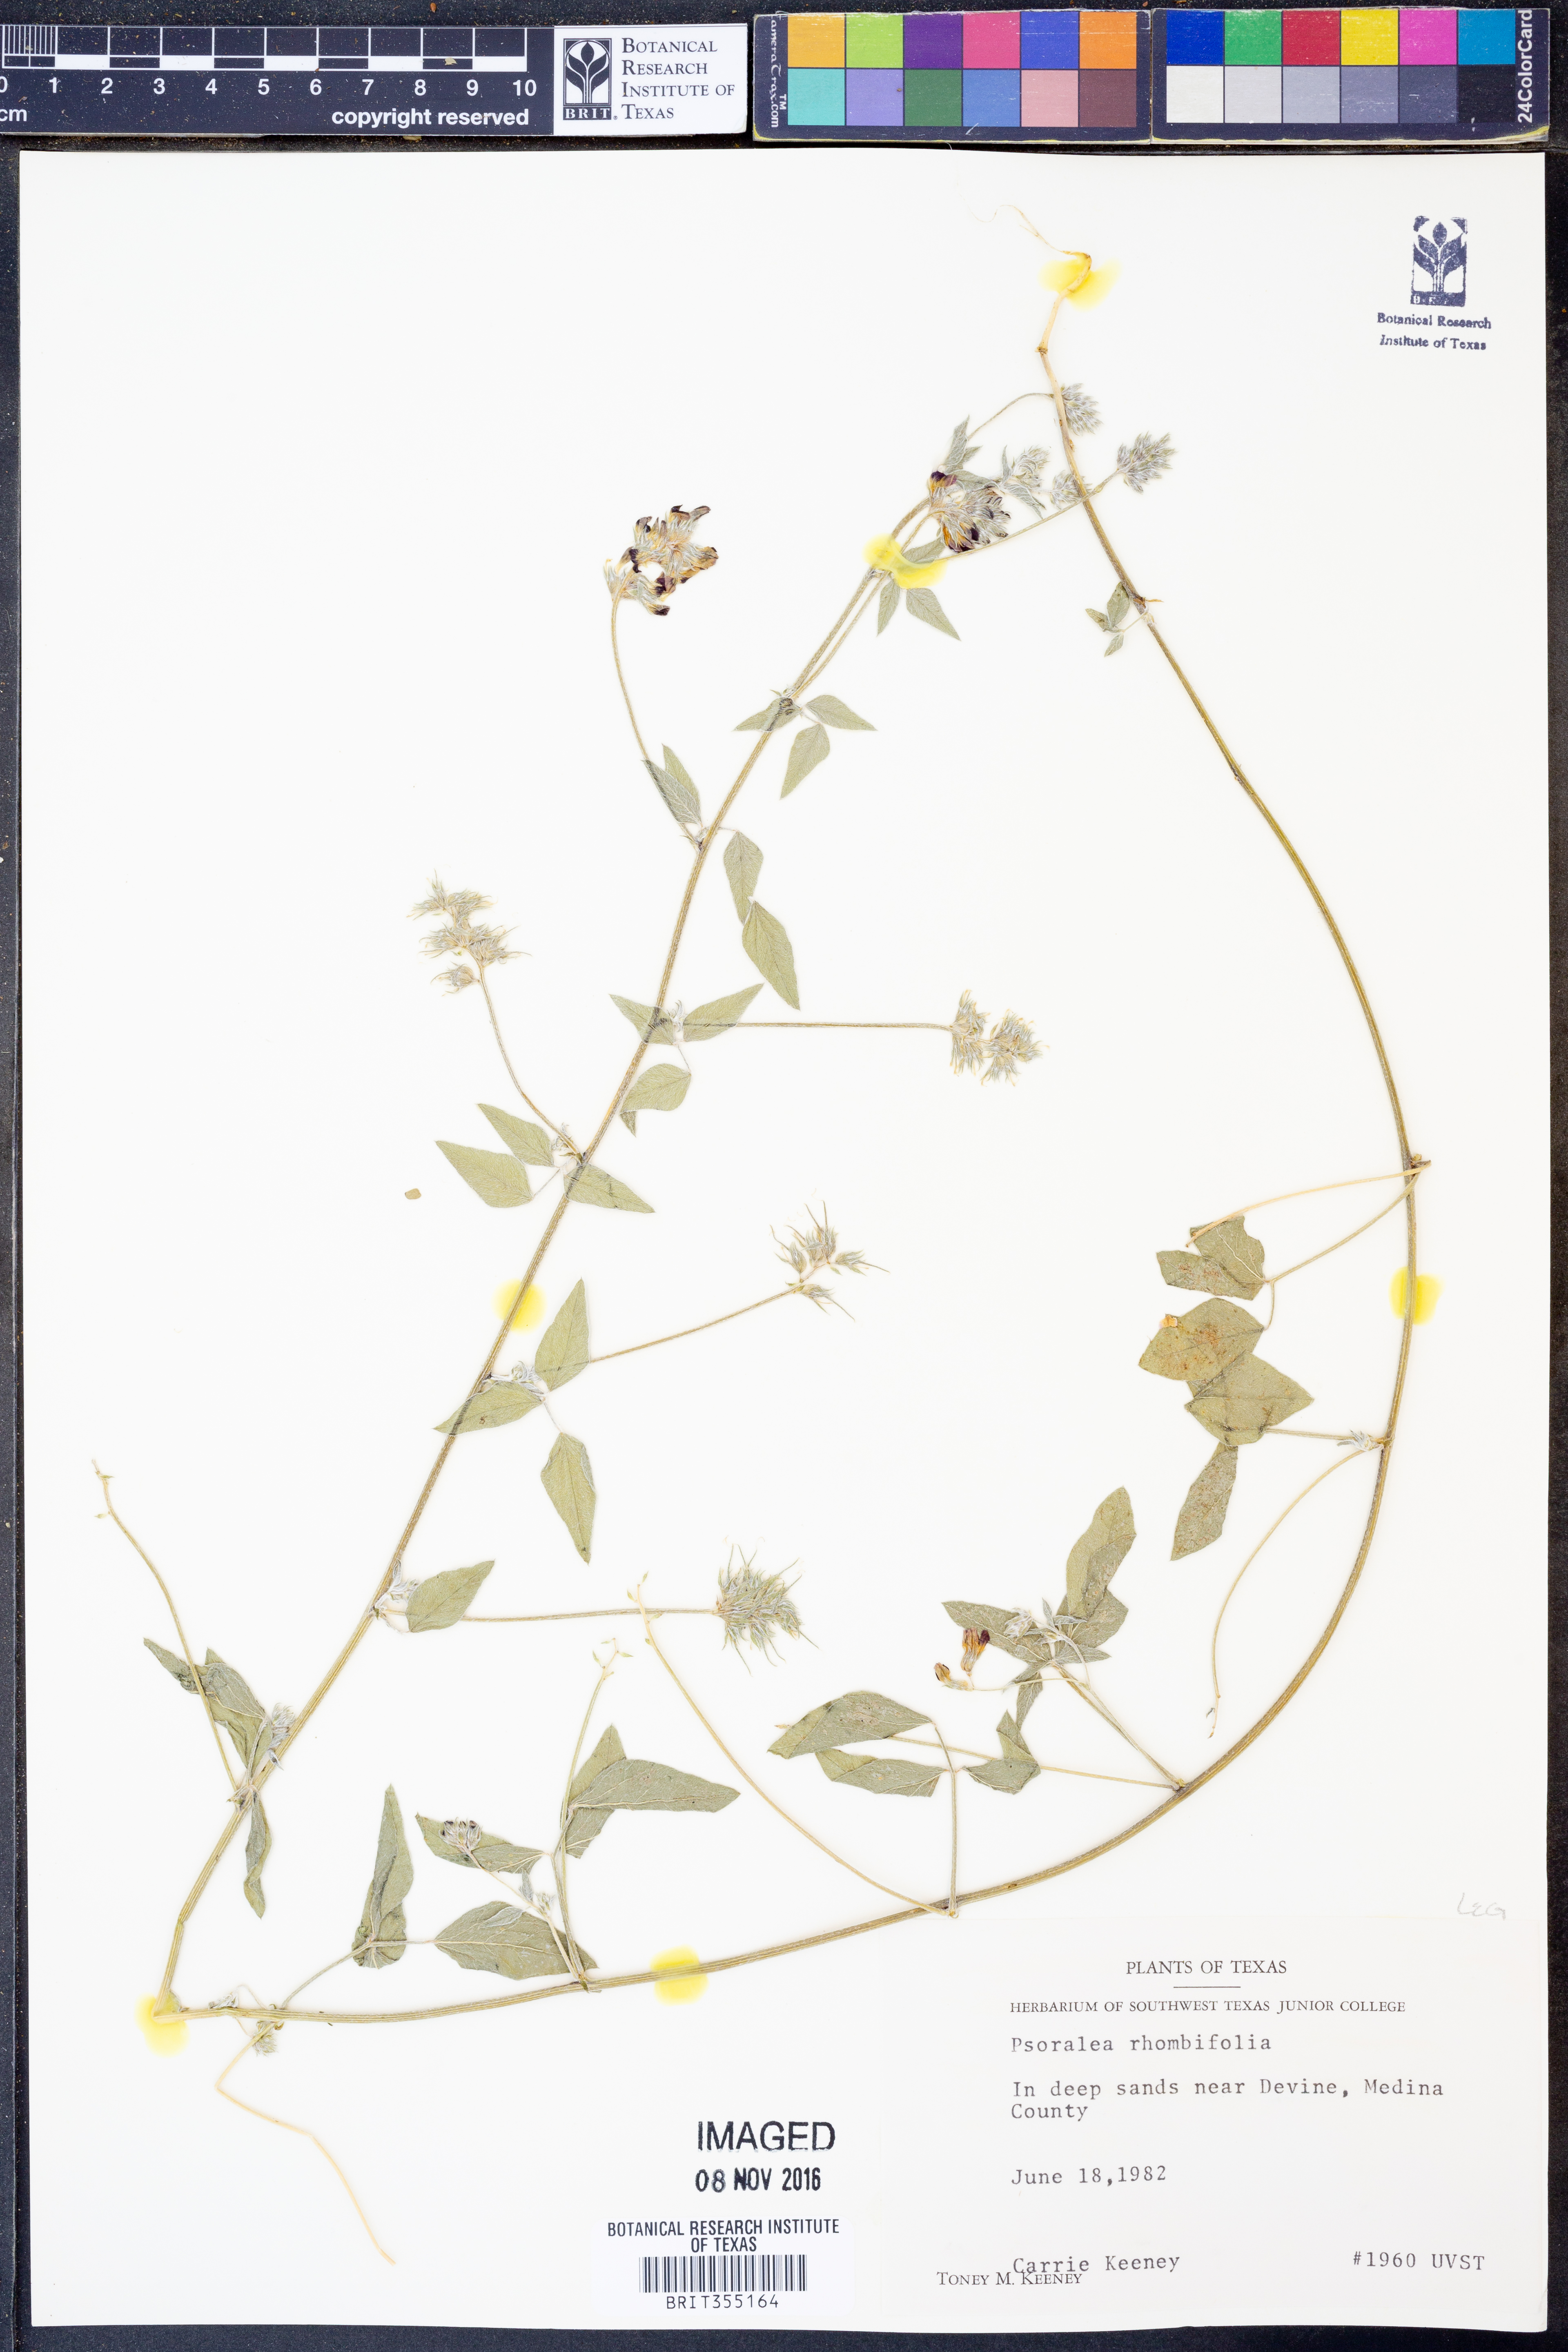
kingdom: Plantae
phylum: Tracheophyta
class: Magnoliopsida
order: Fabales
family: Fabaceae
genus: Pediomelum
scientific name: Pediomelum rhombifolium
